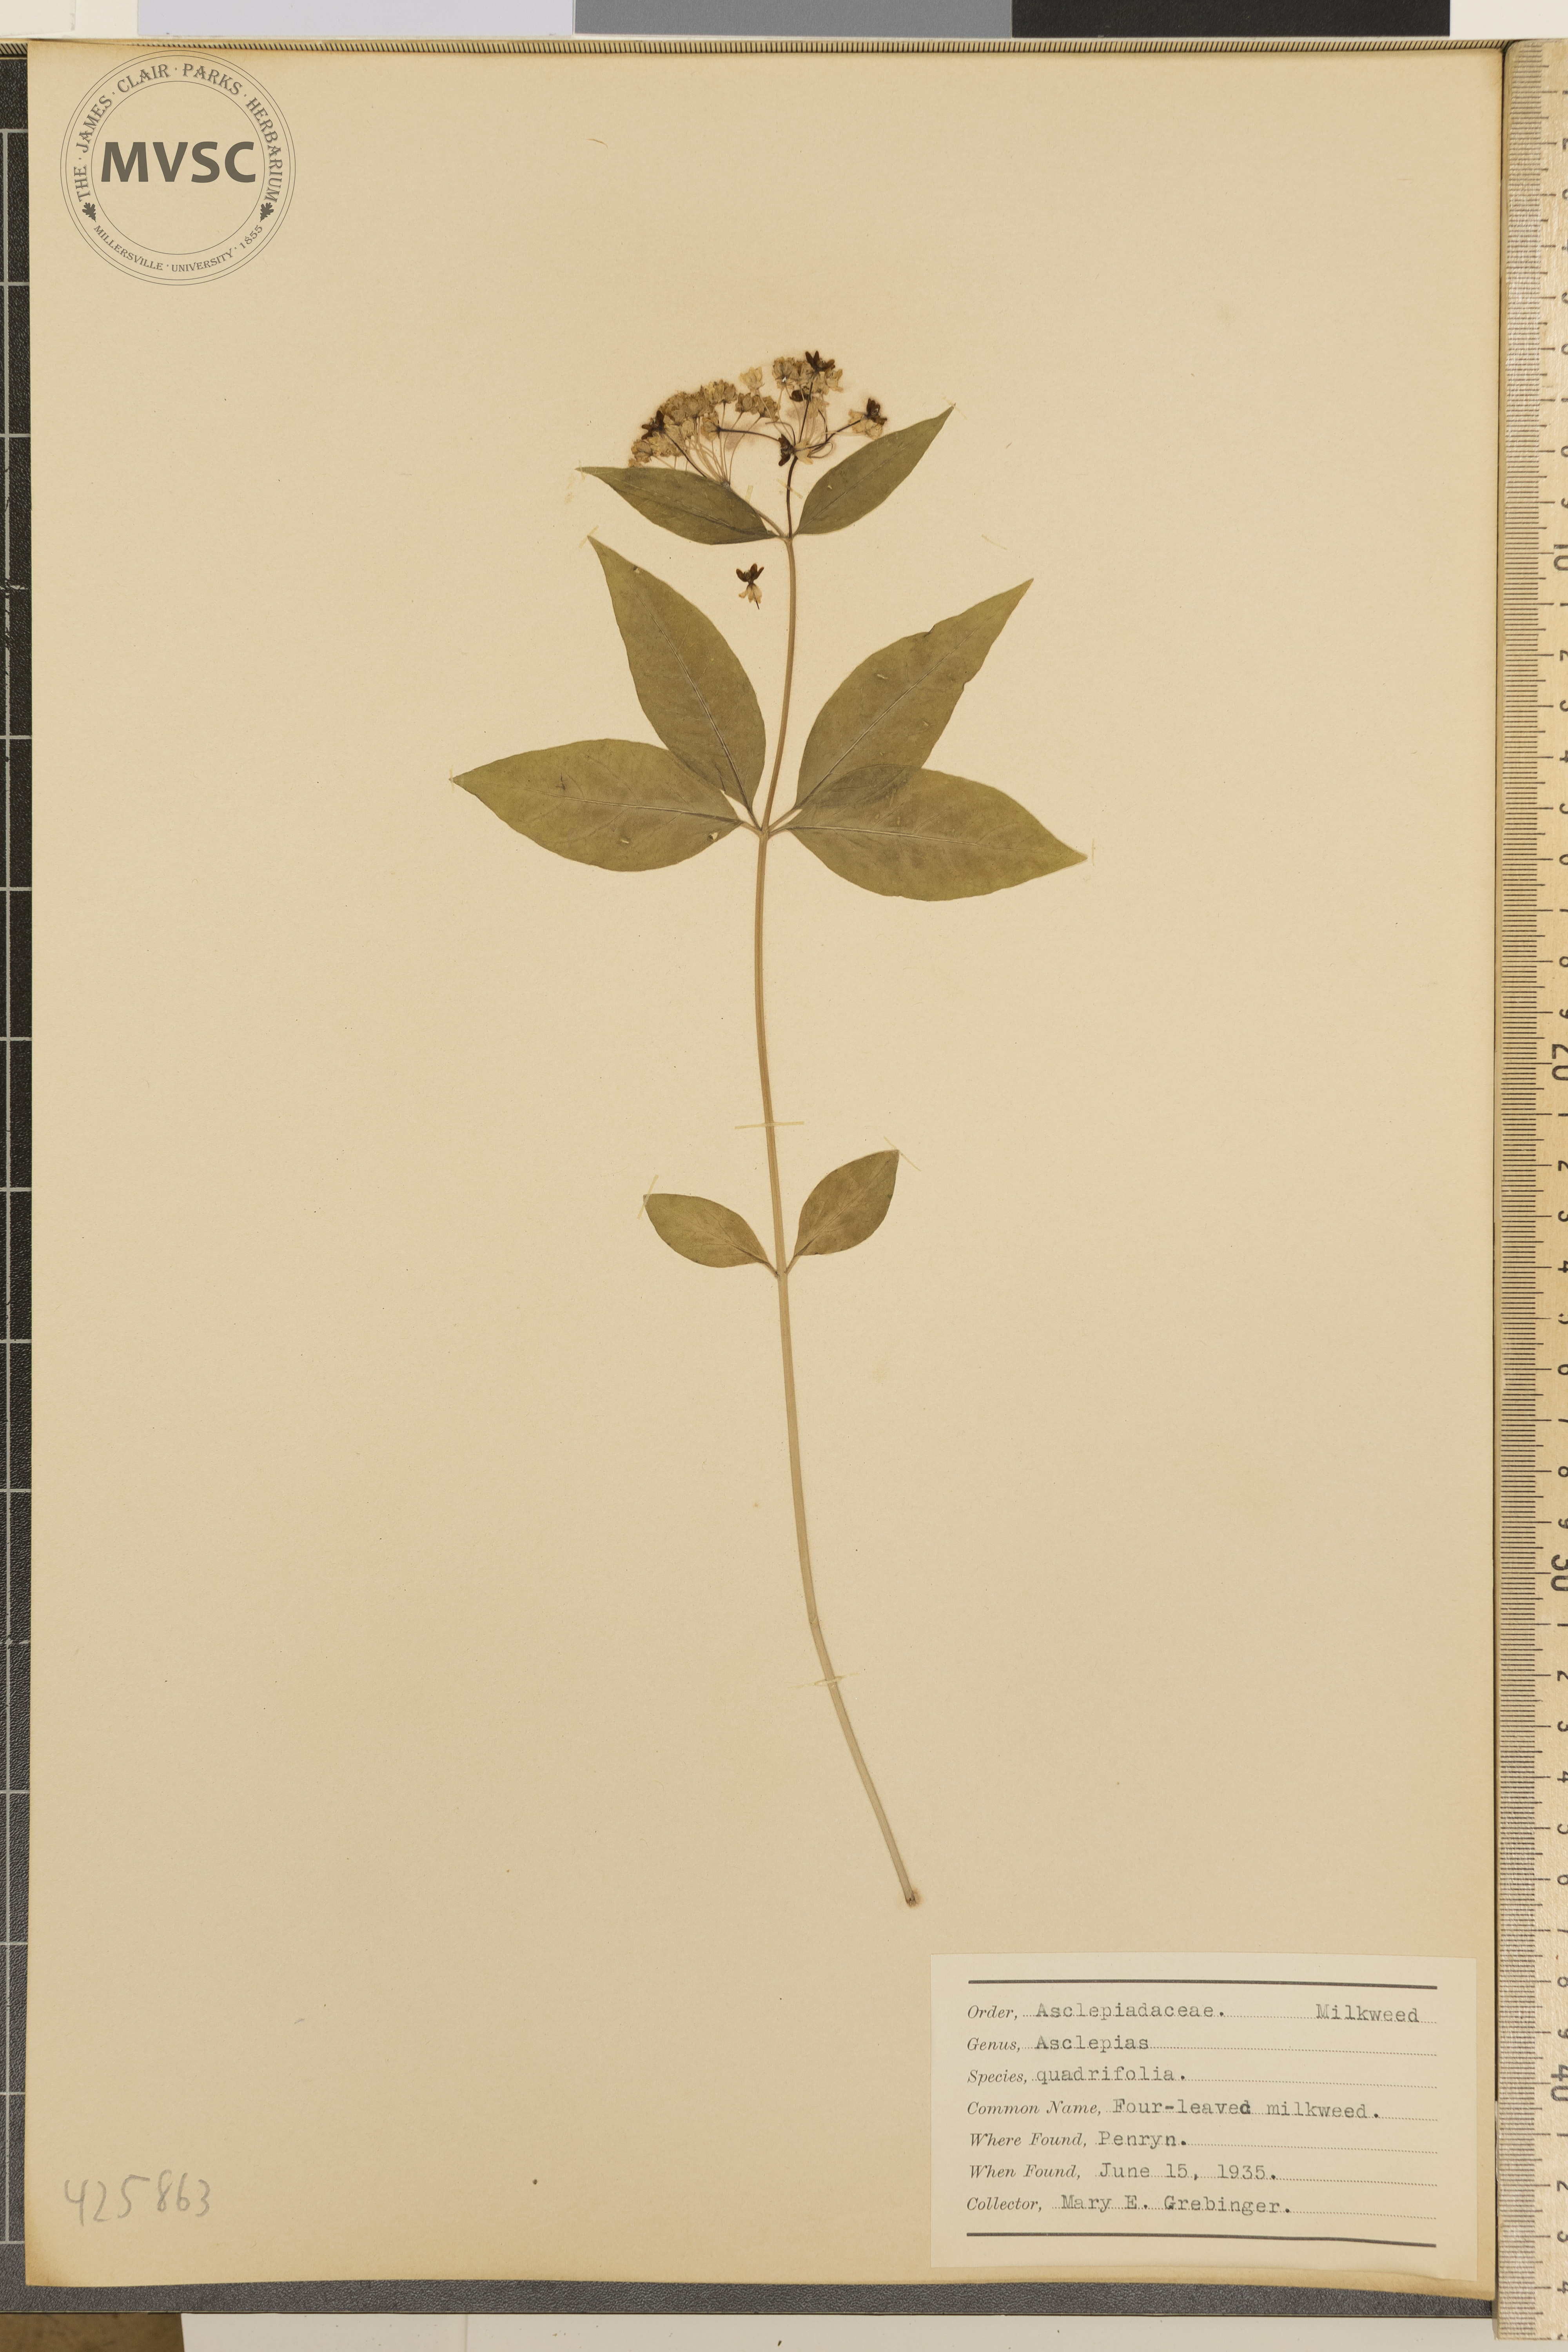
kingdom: Plantae
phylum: Tracheophyta
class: Magnoliopsida
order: Gentianales
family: Apocynaceae
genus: Asclepias
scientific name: Asclepias quadrifolia
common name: Four-leaved milkweed
